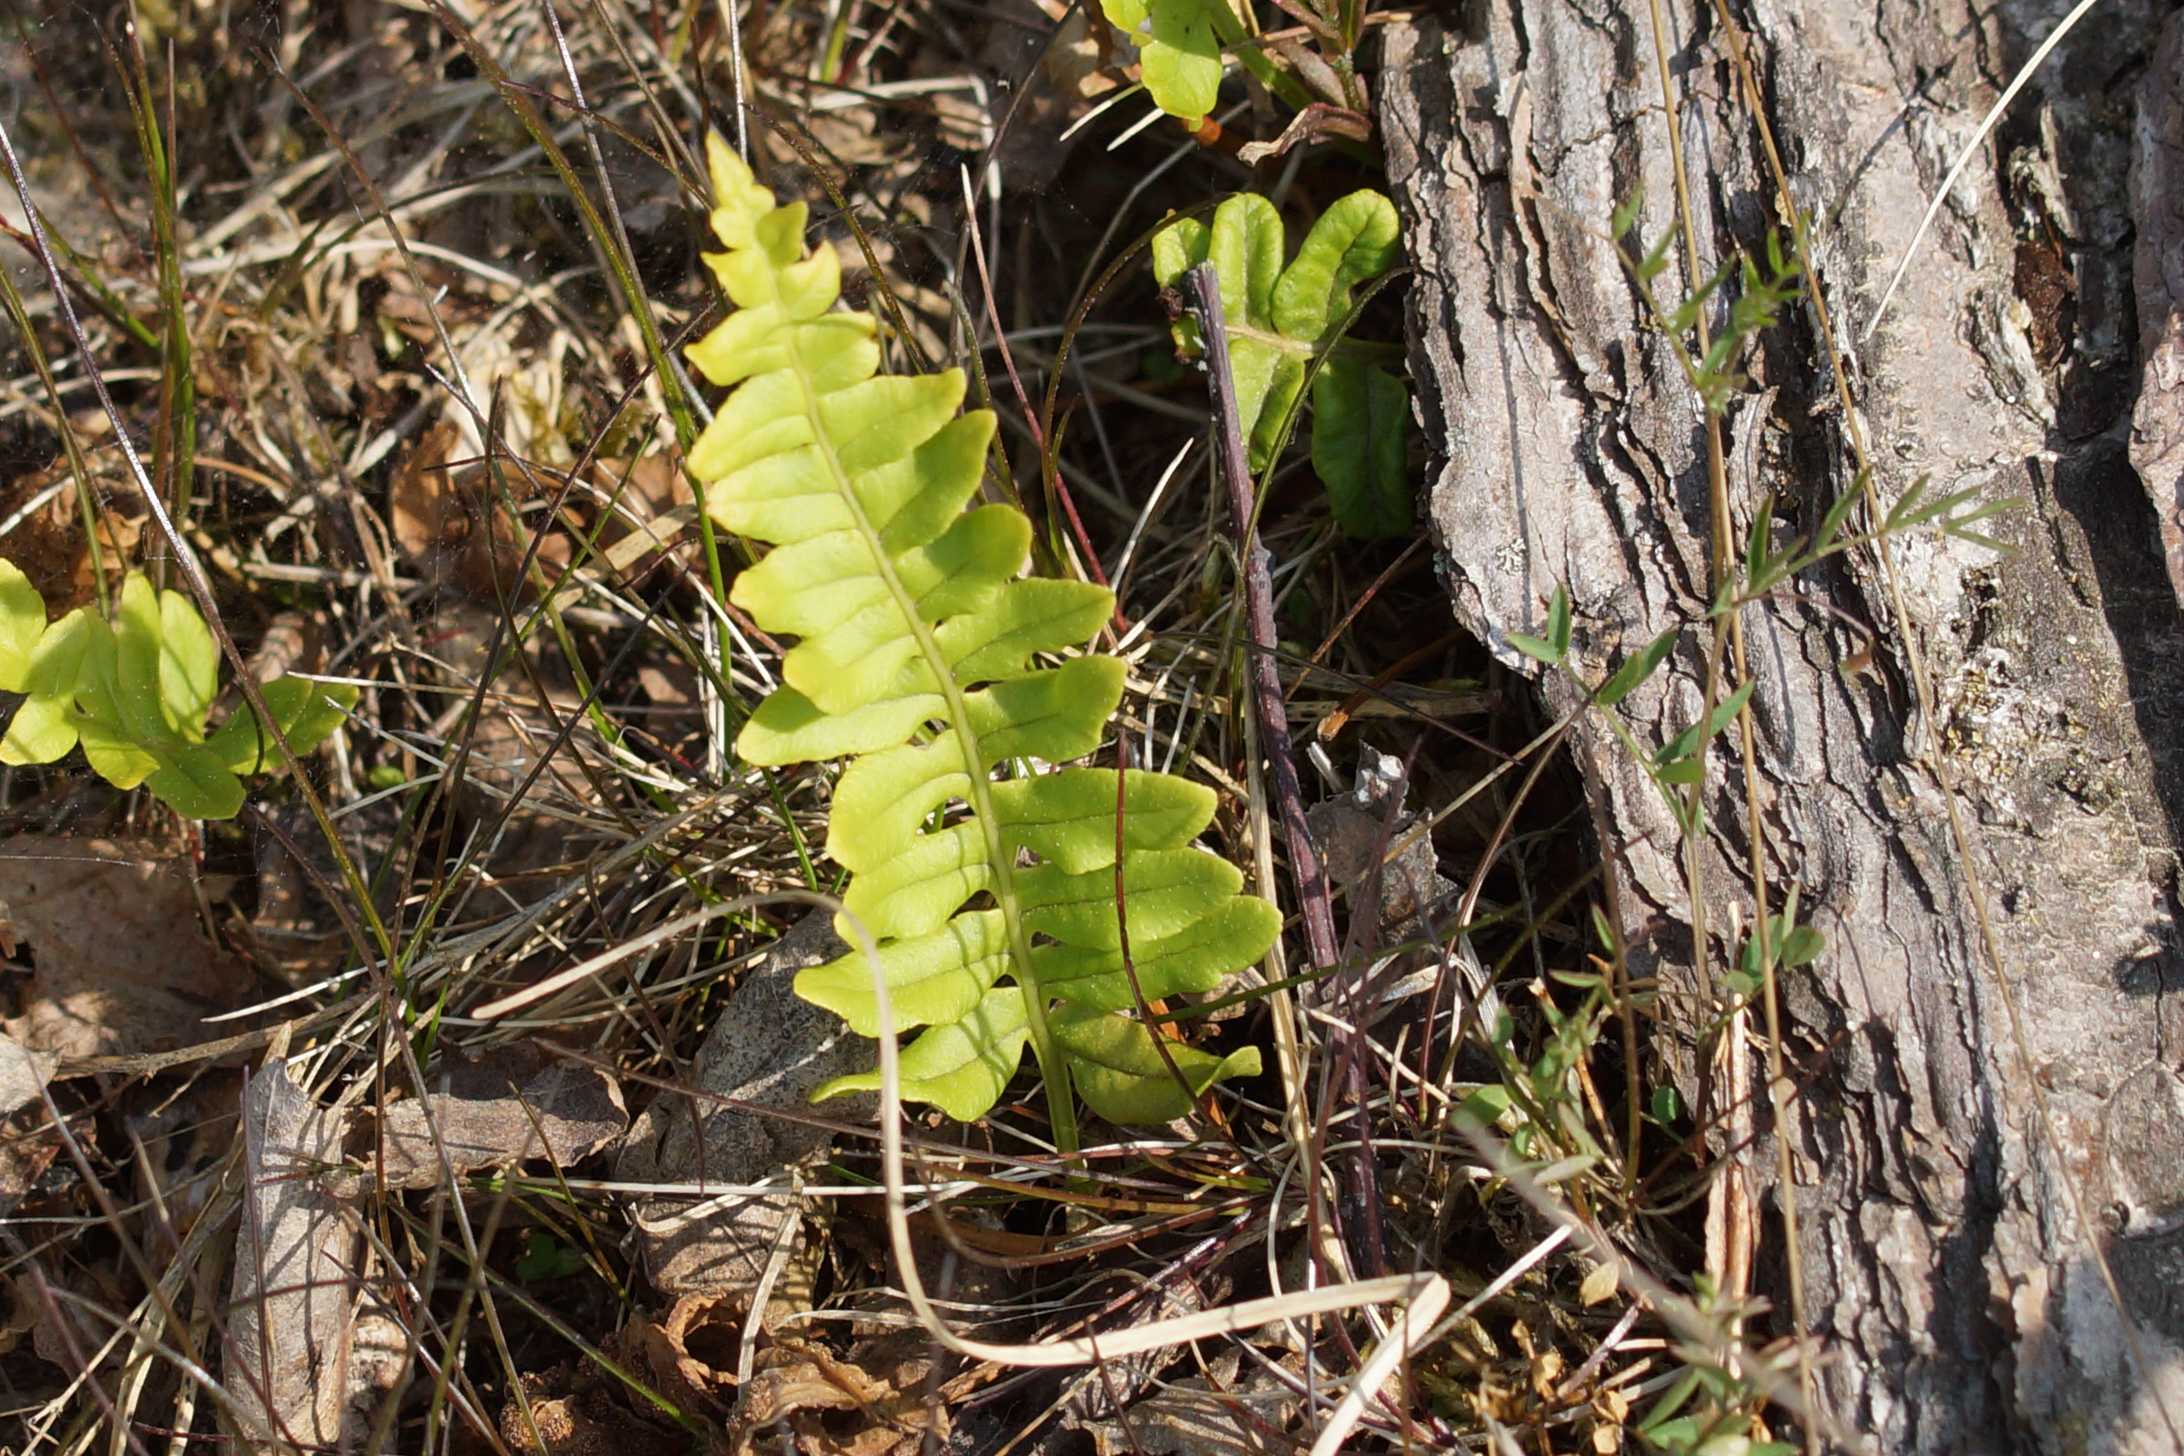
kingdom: Plantae
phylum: Tracheophyta
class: Polypodiopsida
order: Polypodiales
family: Polypodiaceae
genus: Polypodium
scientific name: Polypodium vulgare
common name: Almindelig engelsød
